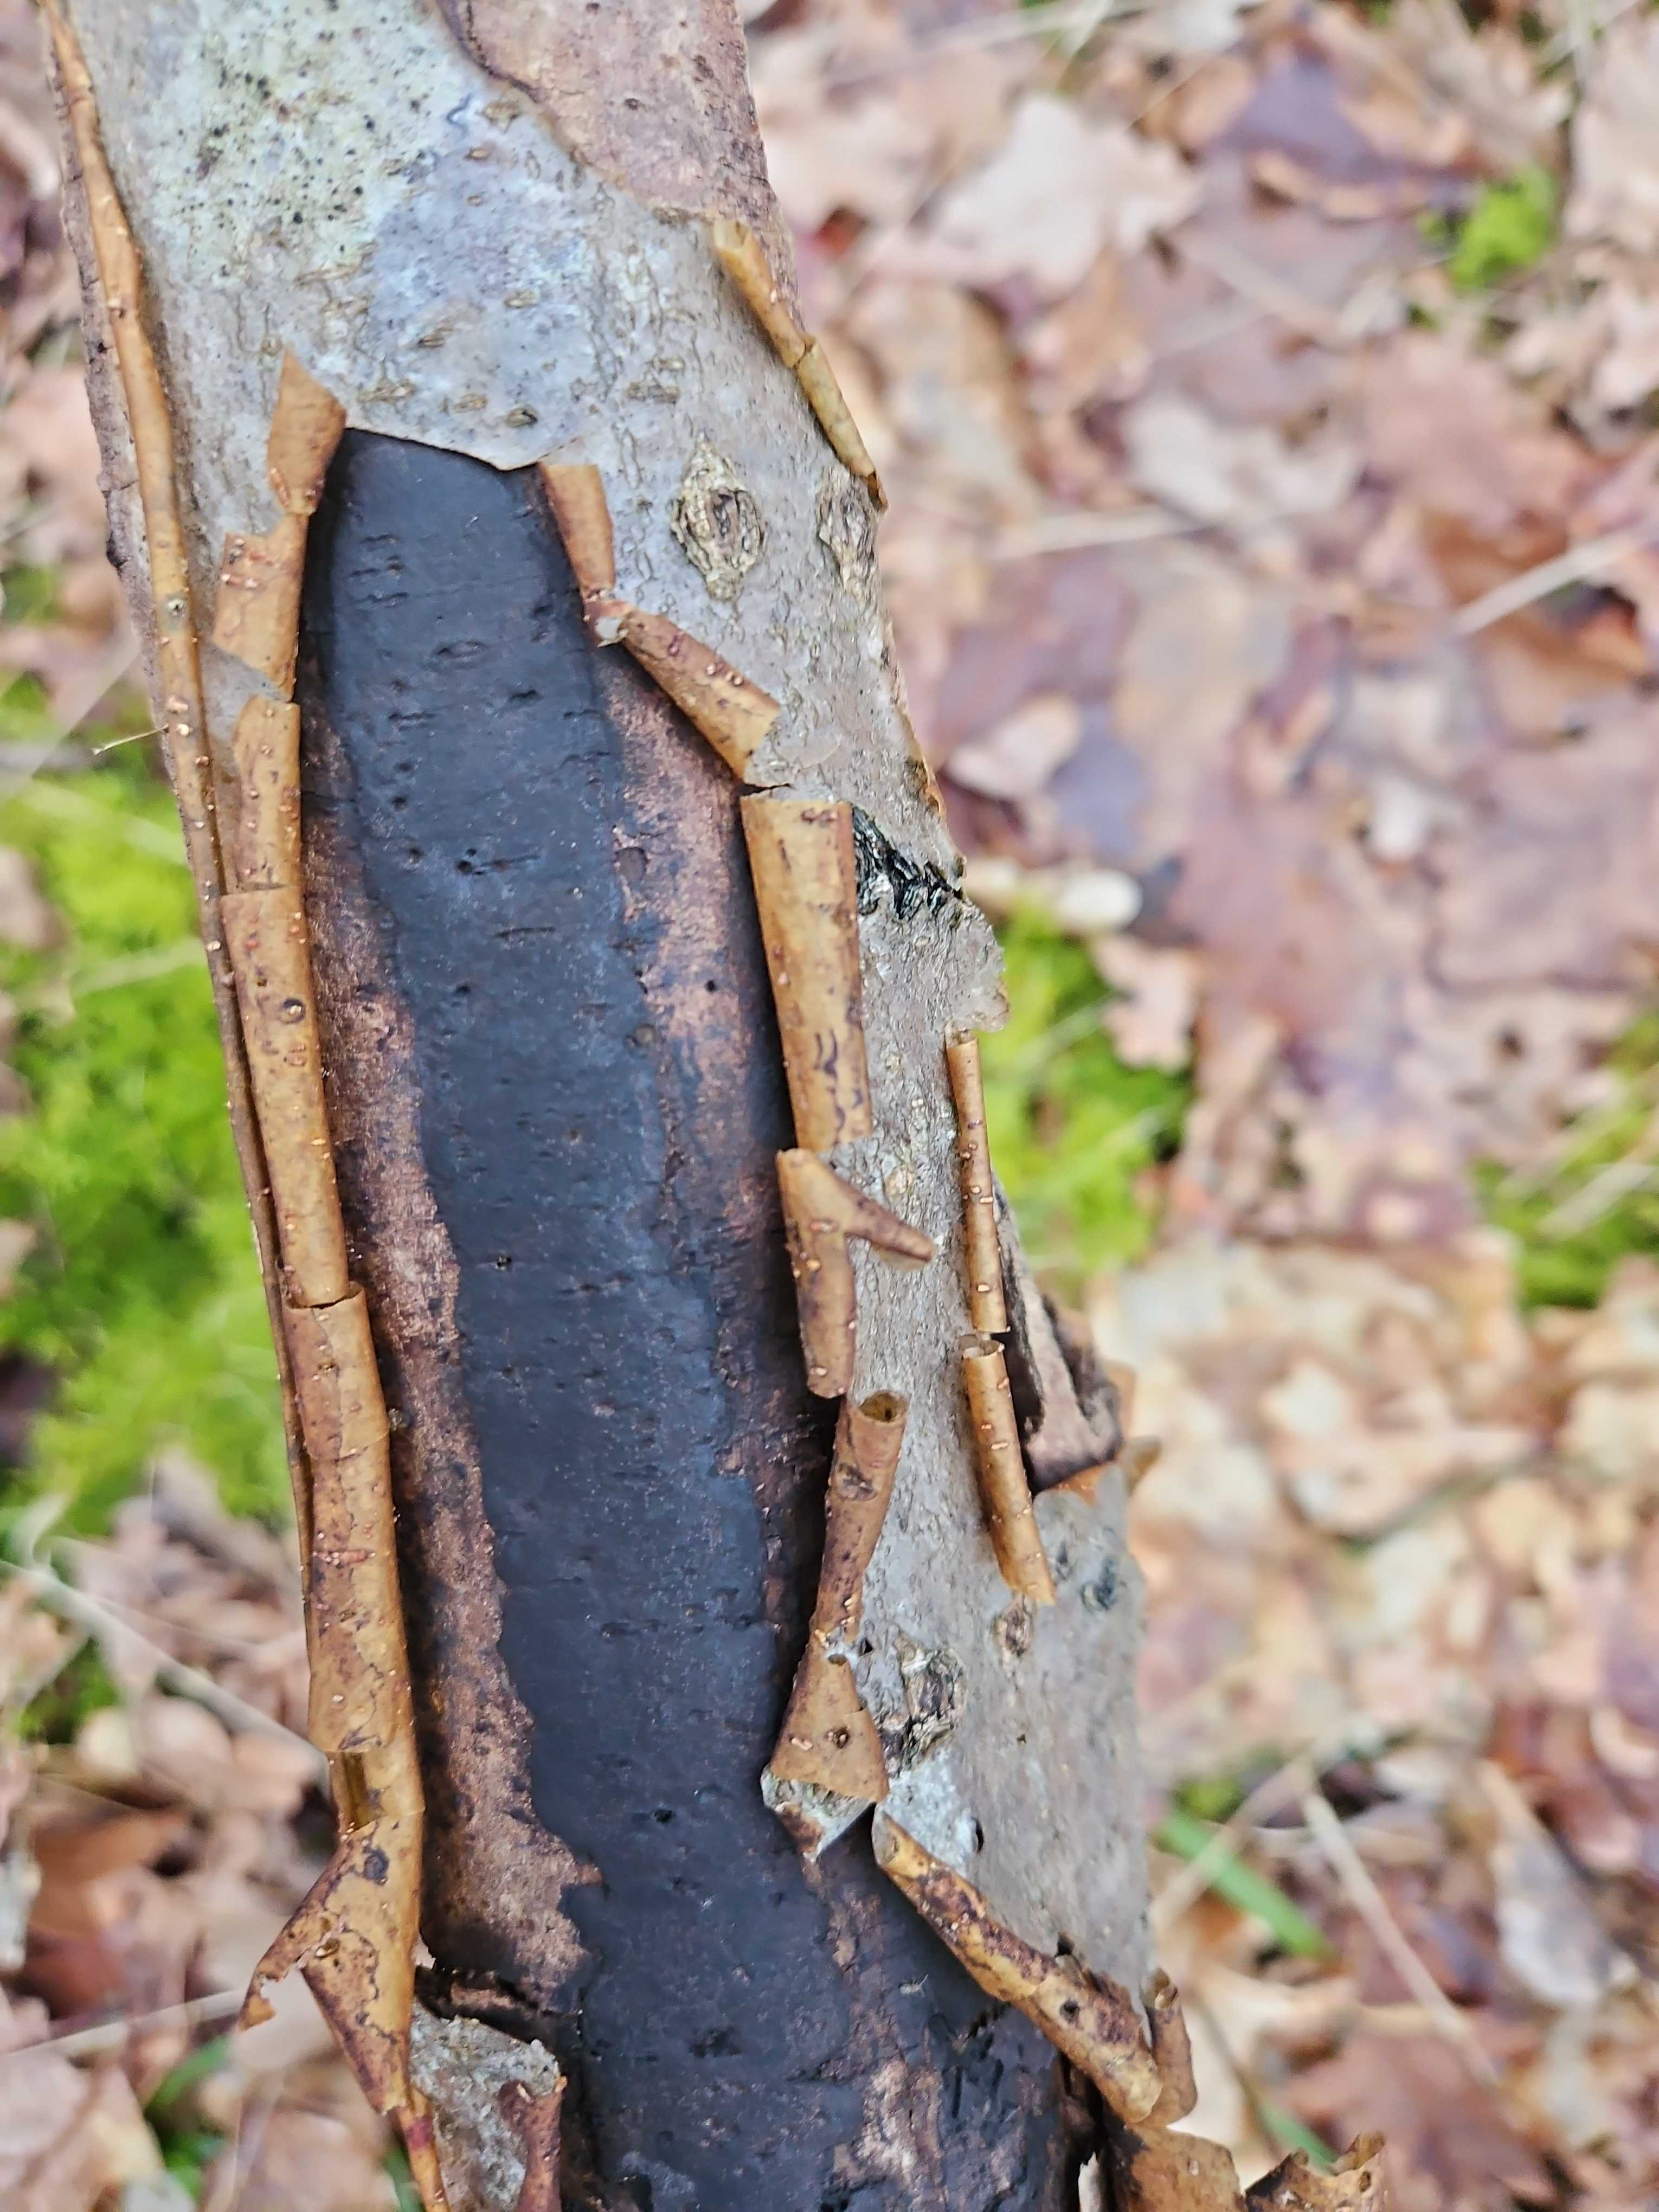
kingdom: Fungi
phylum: Ascomycota
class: Sordariomycetes
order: Xylariales
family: Diatrypaceae
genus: Diatrype
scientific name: Diatrype decorticata
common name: barksprænger-kulskorpe
